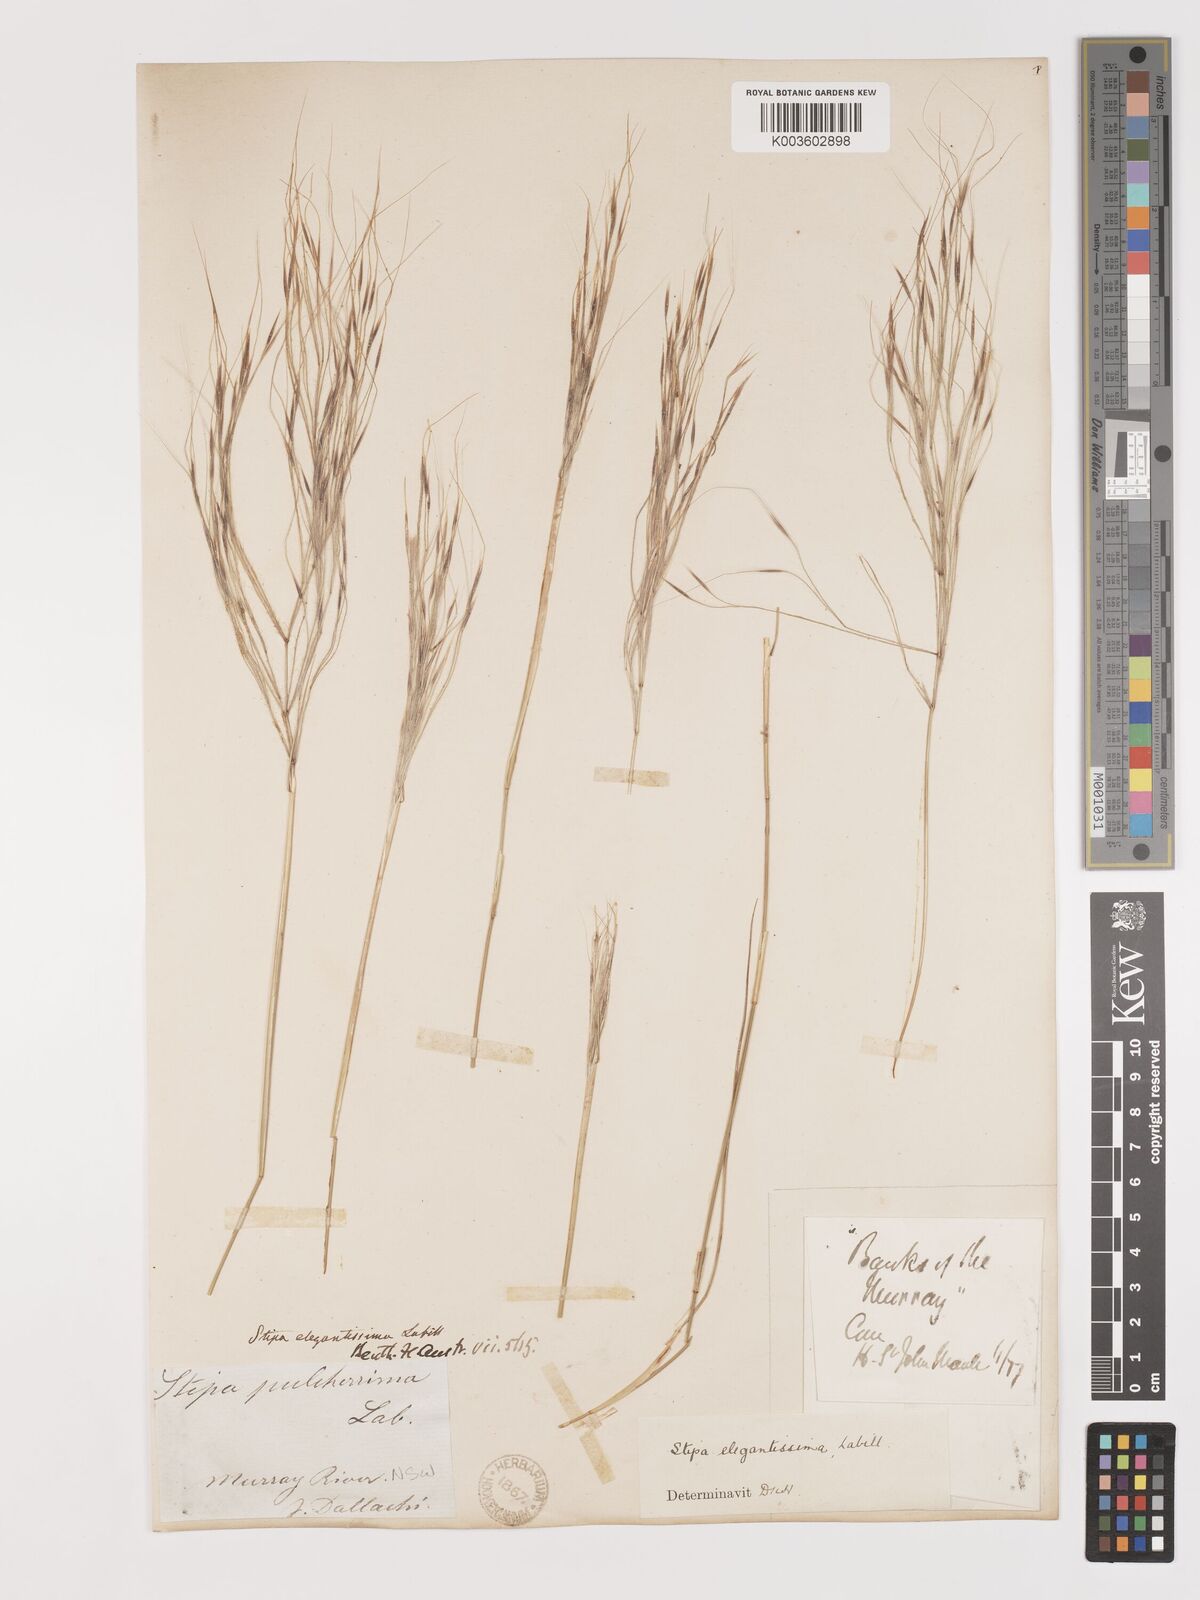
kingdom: Plantae
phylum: Tracheophyta
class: Liliopsida
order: Poales
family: Poaceae
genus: Austrostipa
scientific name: Austrostipa elegantissima
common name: Feather spear grass
